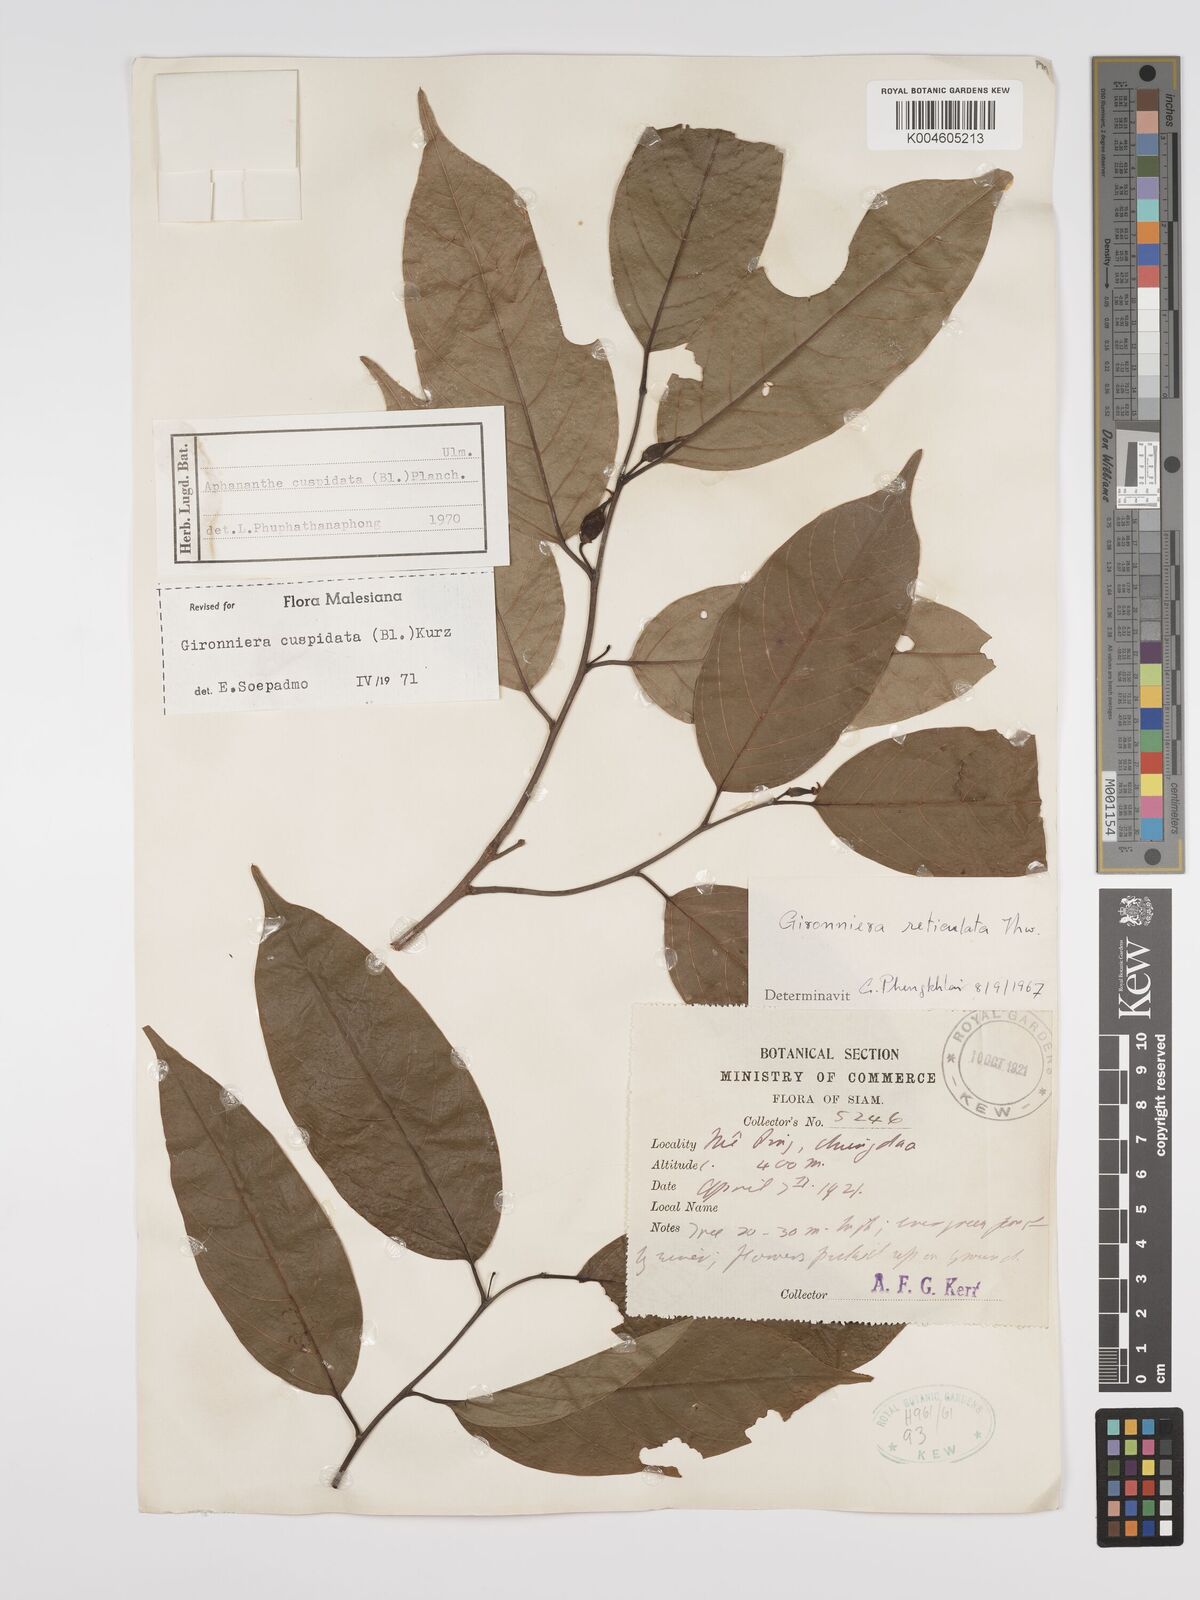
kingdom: Plantae
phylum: Tracheophyta
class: Magnoliopsida
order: Rosales
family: Cannabaceae
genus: Aphananthe
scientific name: Aphananthe cuspidata
